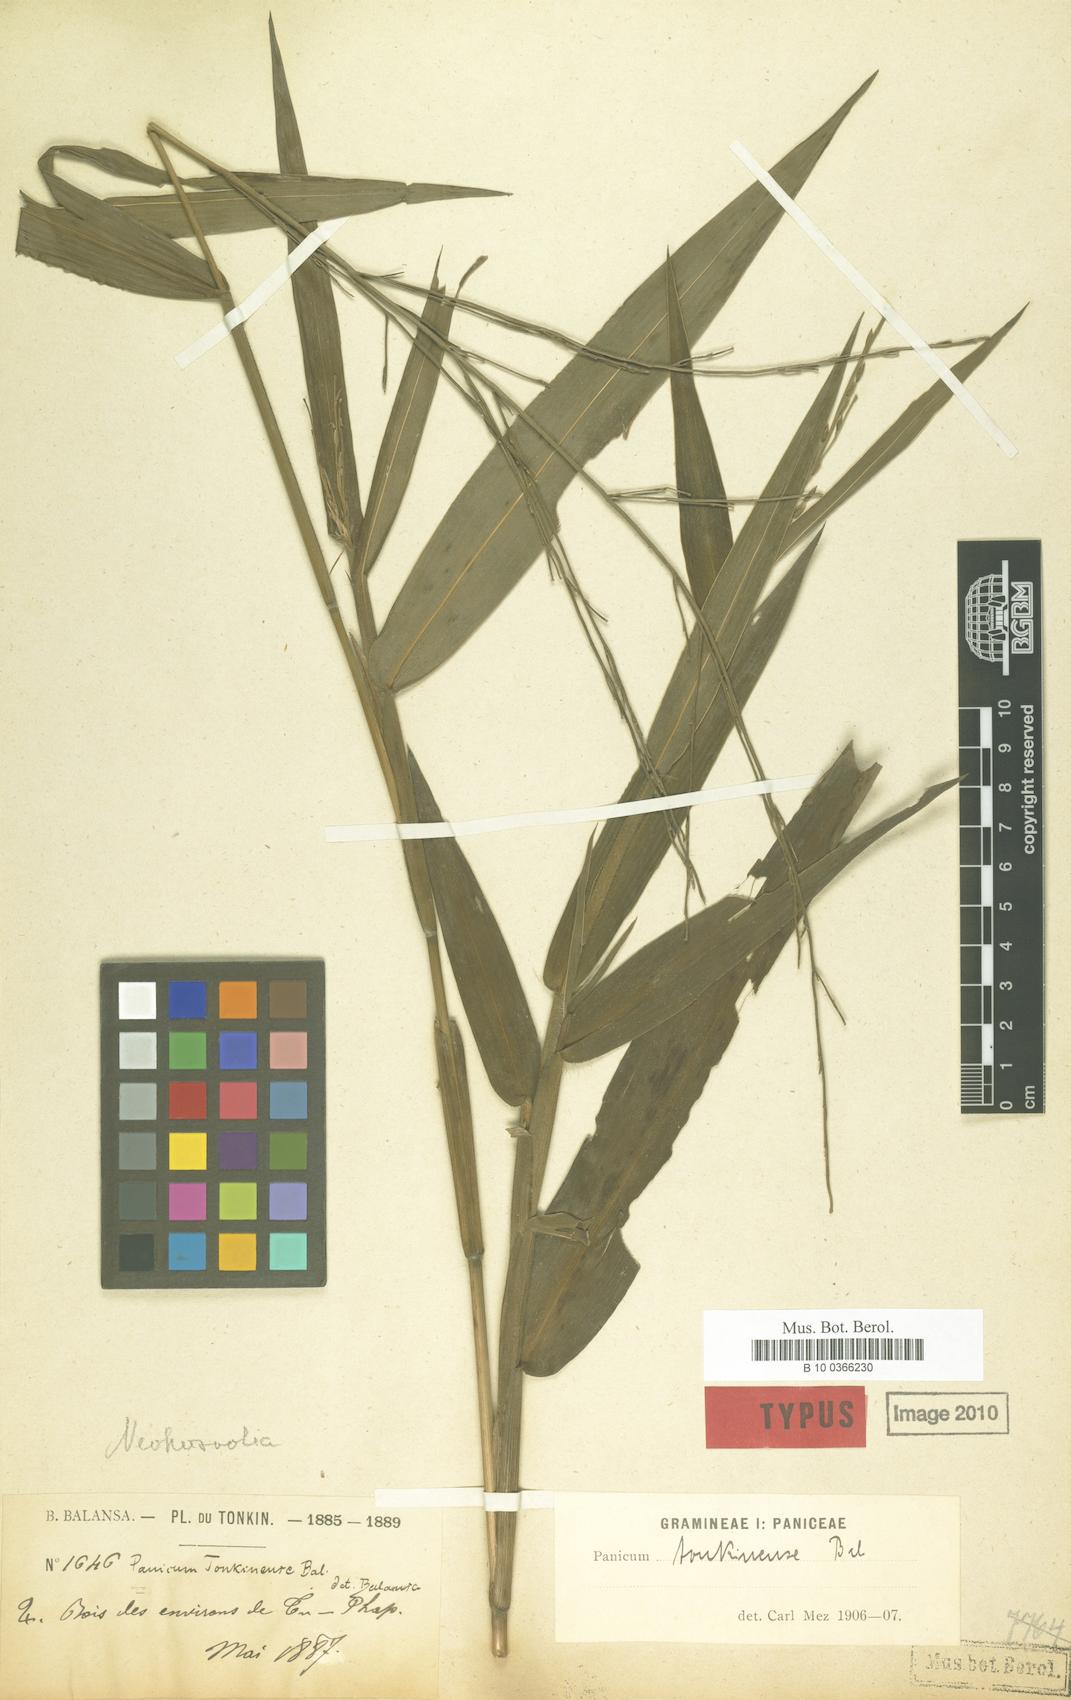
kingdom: Plantae
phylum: Tracheophyta
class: Liliopsida
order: Poales
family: Poaceae
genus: Acroceras
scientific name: Acroceras tonkinense
